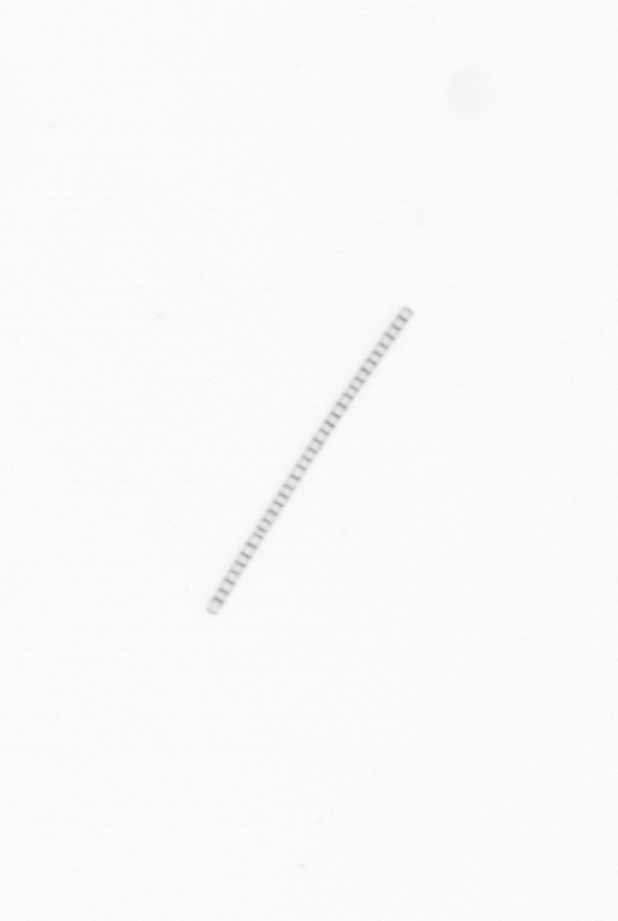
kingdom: Chromista
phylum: Ochrophyta
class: Bacillariophyceae
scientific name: Bacillariophyceae
